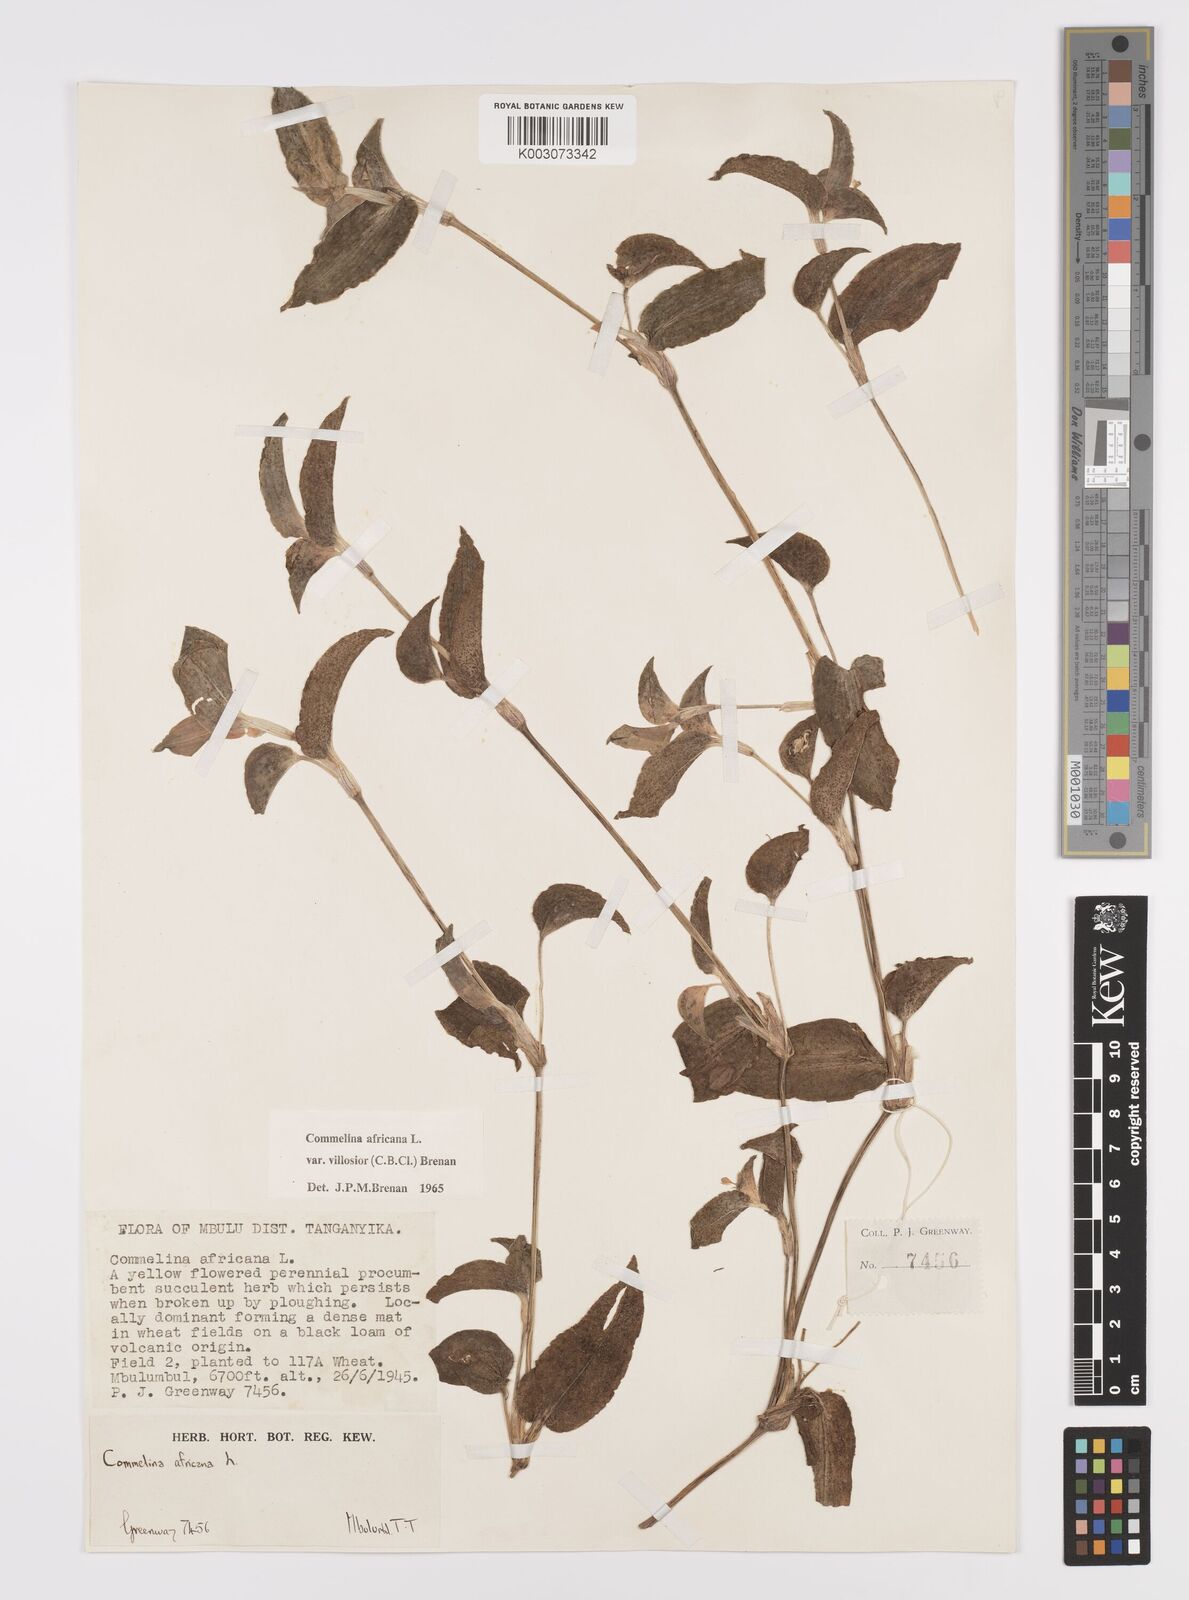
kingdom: Plantae
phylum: Tracheophyta
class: Liliopsida
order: Commelinales
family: Commelinaceae
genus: Commelina
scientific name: Commelina africana
